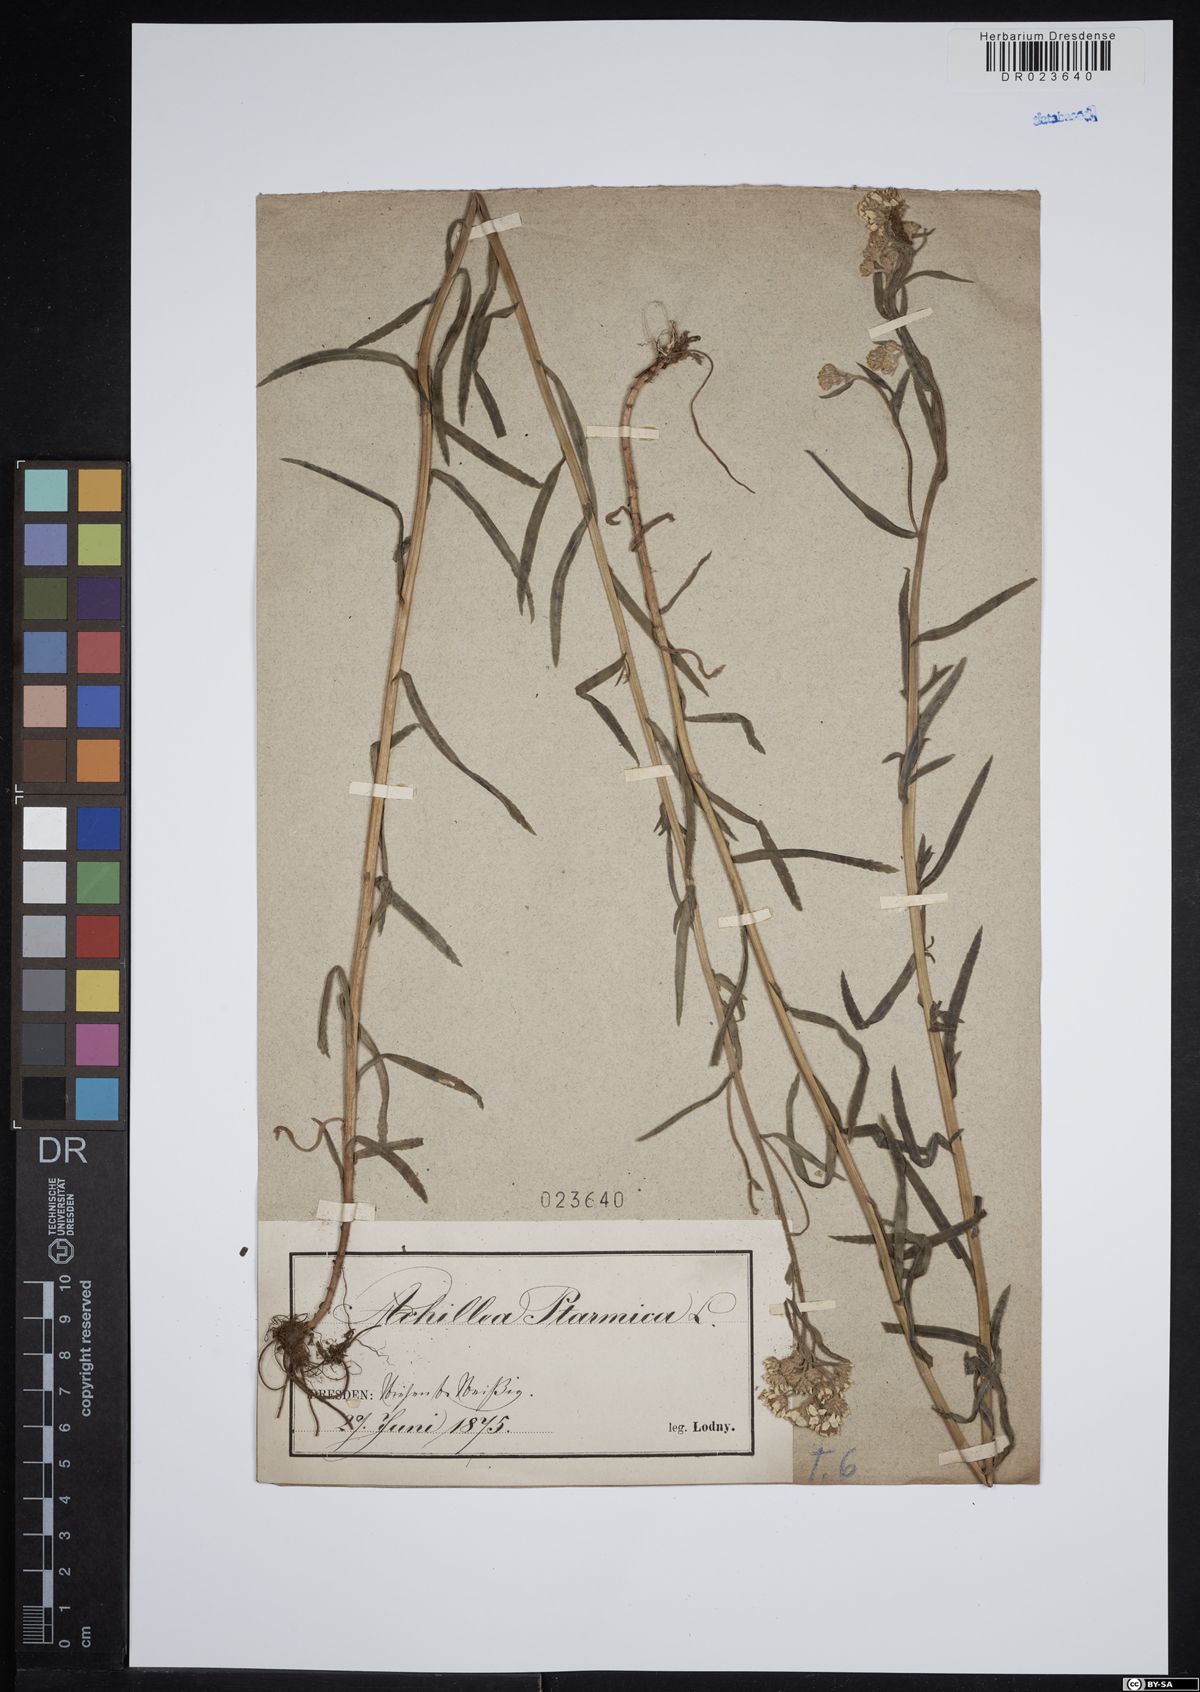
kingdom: Plantae
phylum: Tracheophyta
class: Magnoliopsida
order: Asterales
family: Asteraceae
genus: Achillea
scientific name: Achillea ptarmica
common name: Sneezeweed
